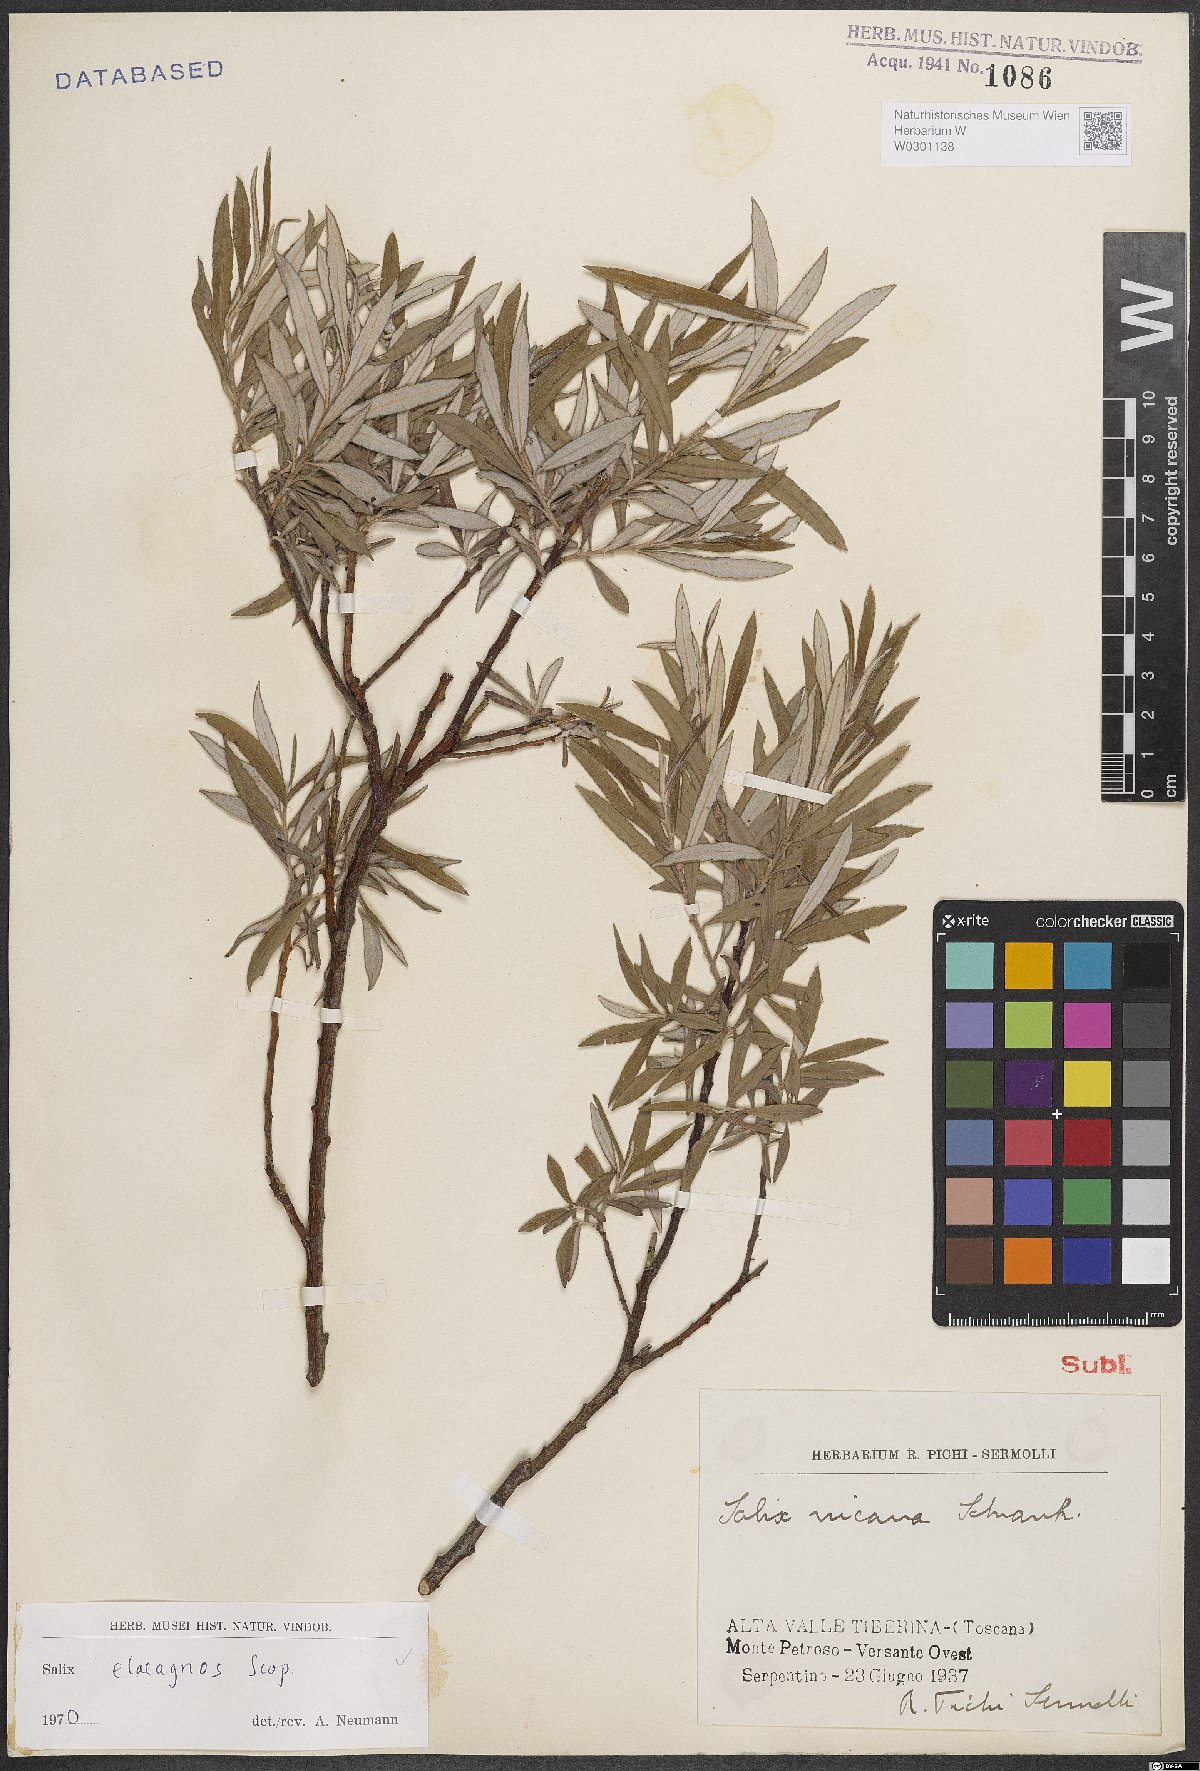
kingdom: Plantae
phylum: Tracheophyta
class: Magnoliopsida
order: Malpighiales
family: Salicaceae
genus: Salix
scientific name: Salix eleagnos
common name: Elaeagnus willow
